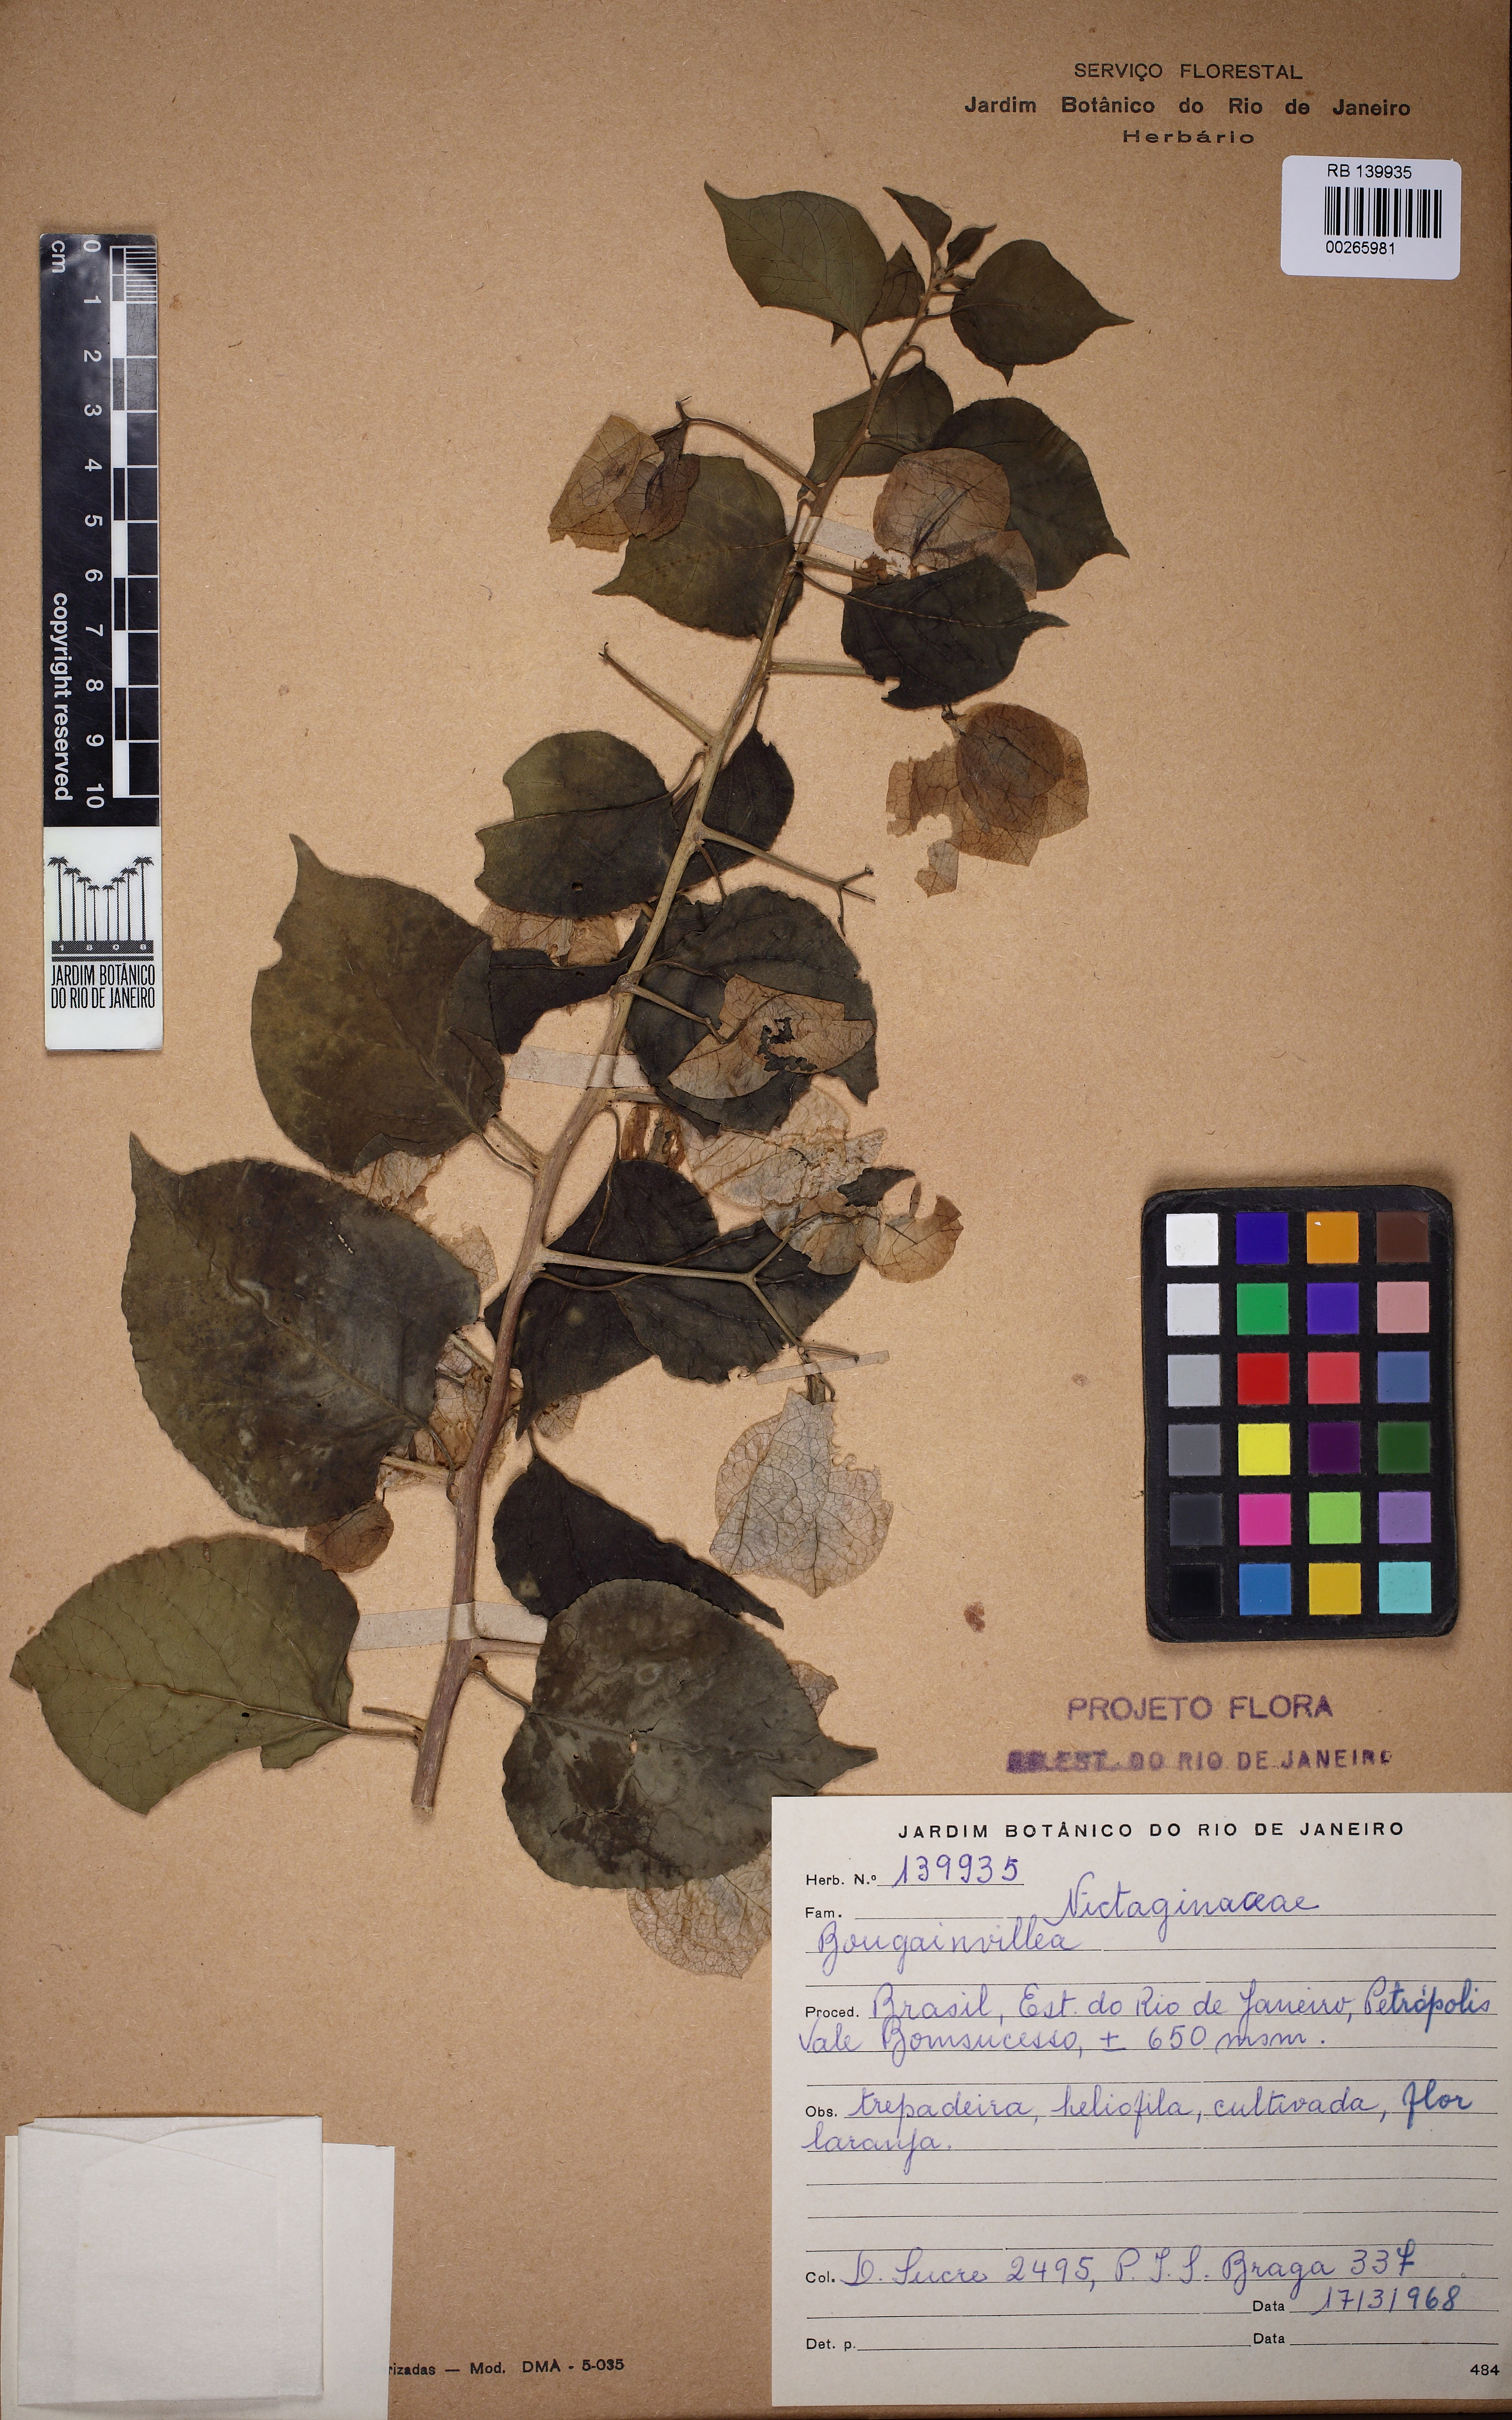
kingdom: Plantae
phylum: Tracheophyta
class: Magnoliopsida
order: Caryophyllales
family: Nyctaginaceae
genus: Bougainvillea
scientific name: Bougainvillea
